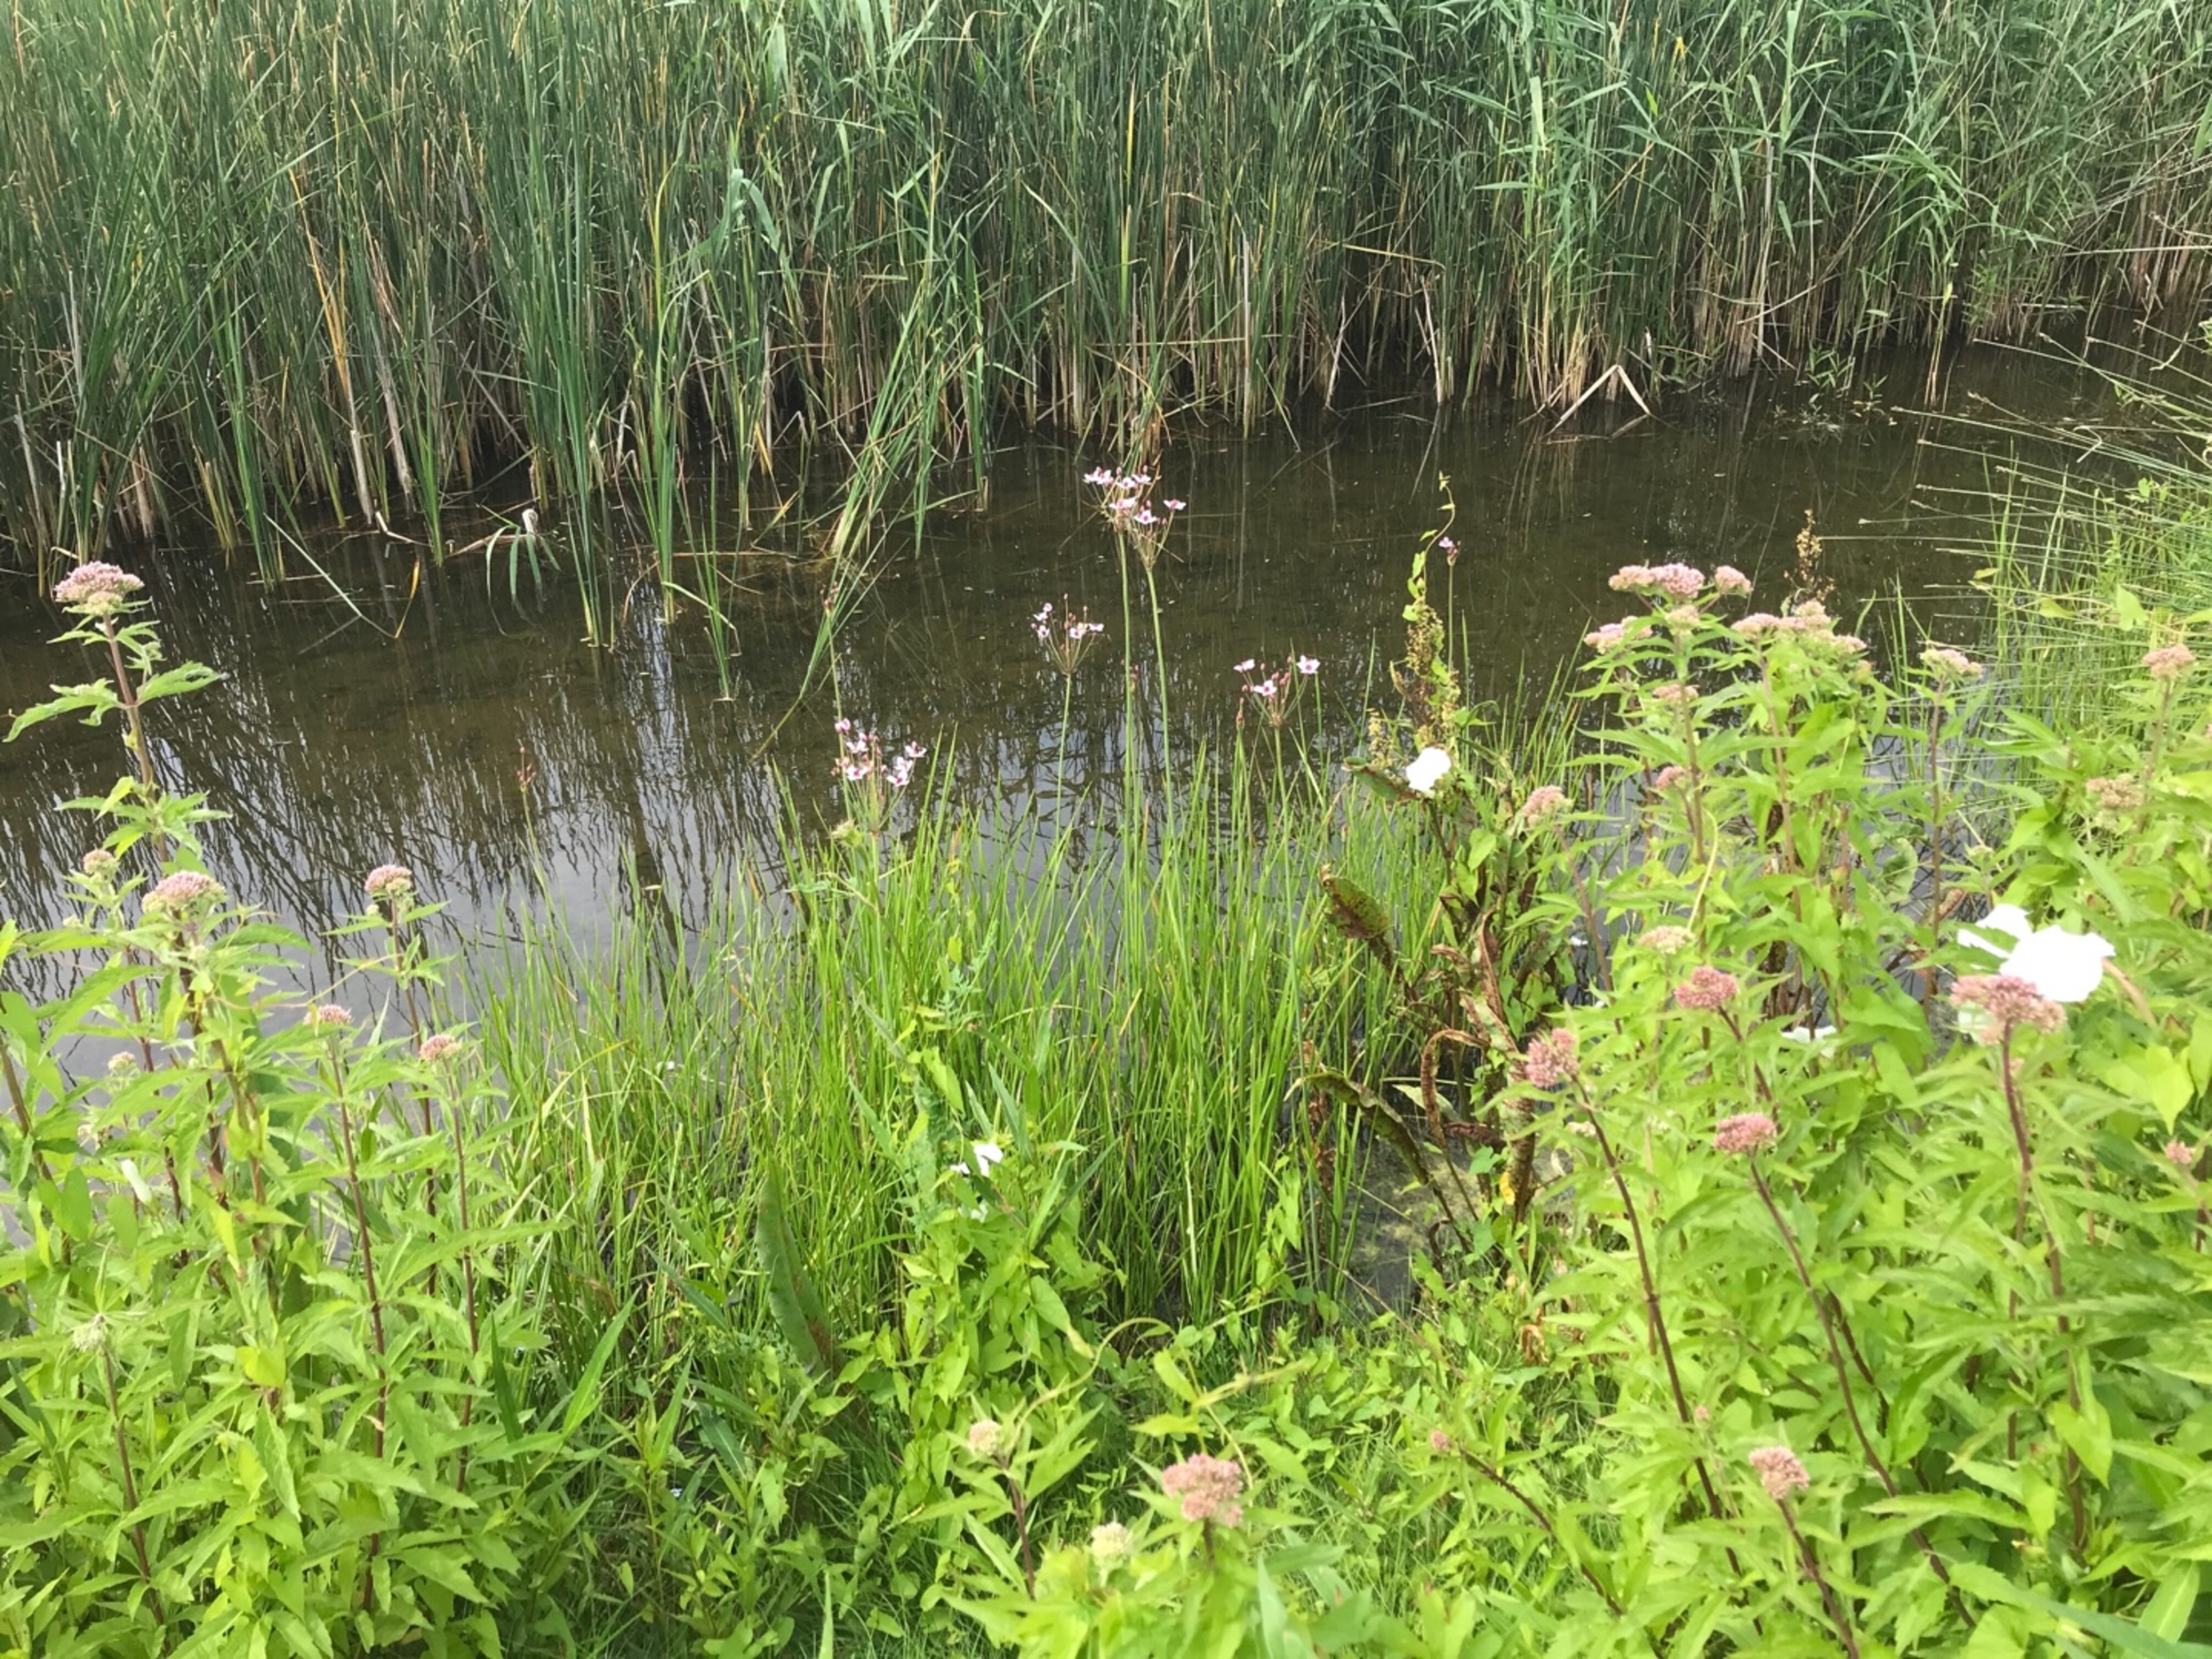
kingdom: Plantae
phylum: Tracheophyta
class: Liliopsida
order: Alismatales
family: Butomaceae
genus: Butomus
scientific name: Butomus umbellatus
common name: Brudelys
